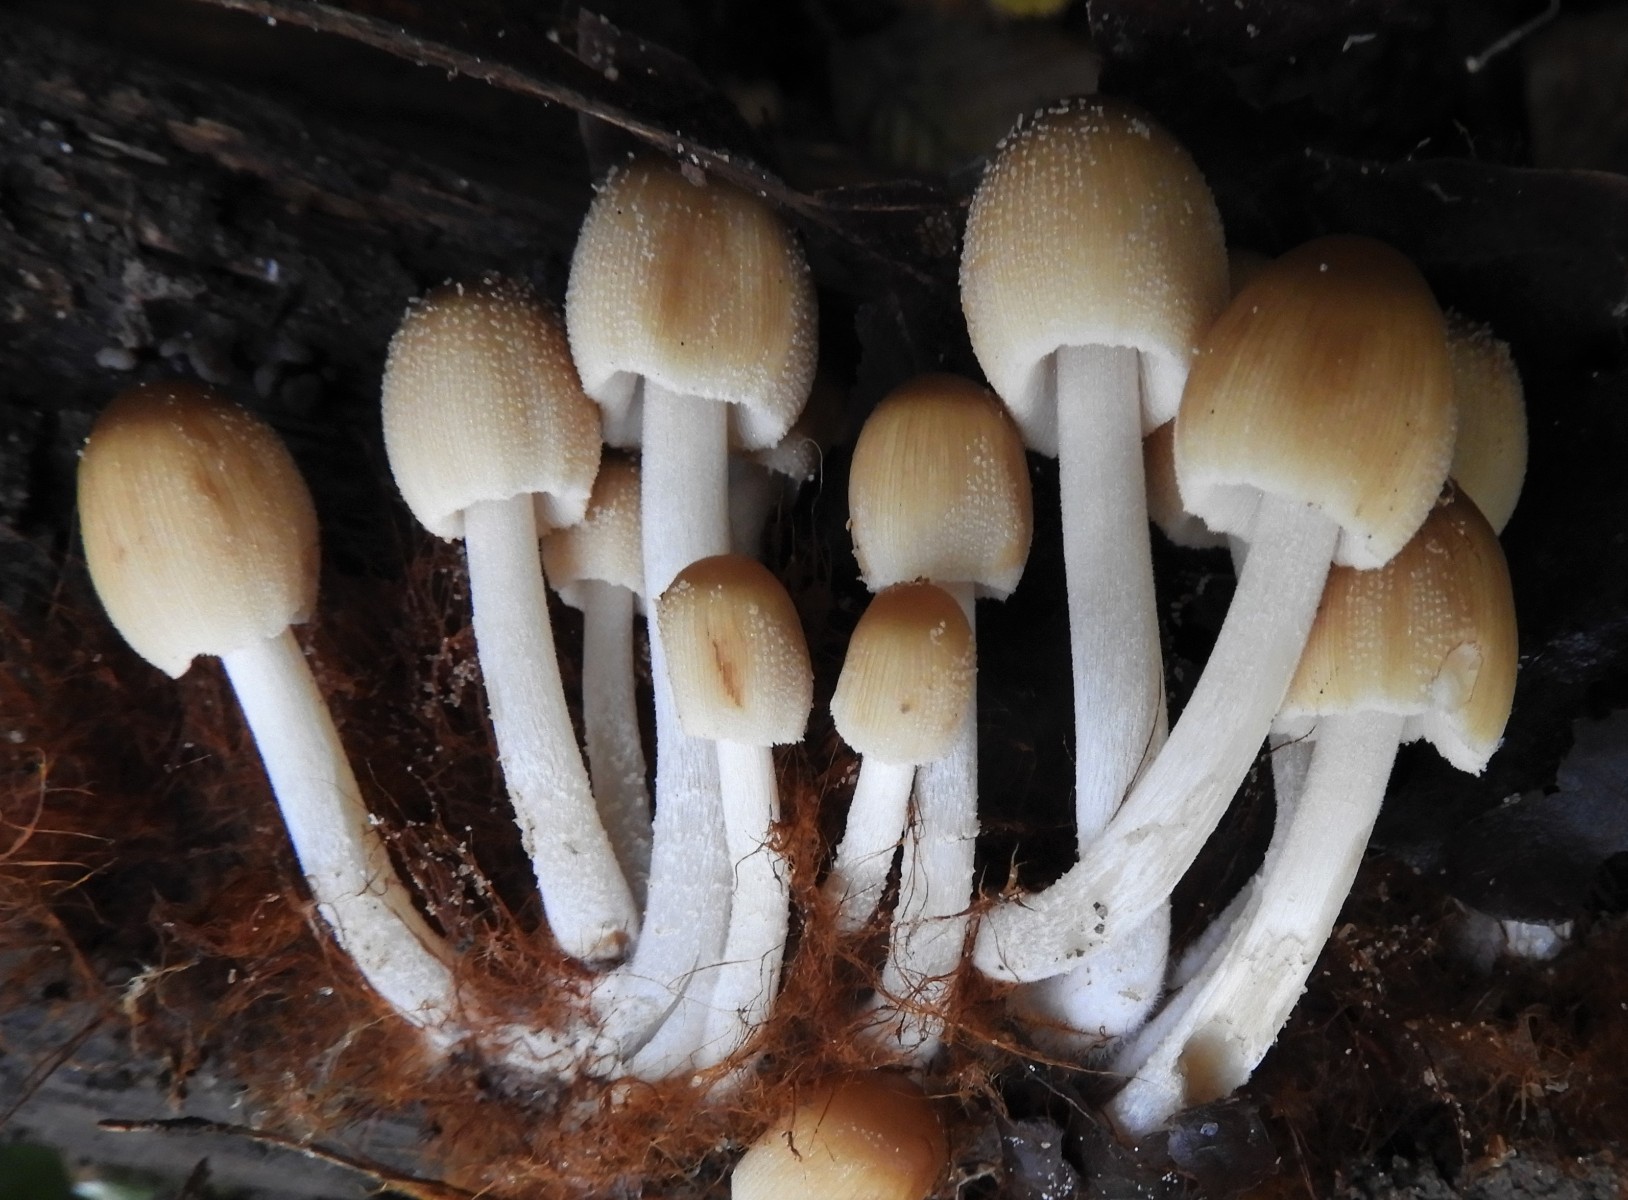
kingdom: Fungi
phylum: Basidiomycota
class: Agaricomycetes
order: Agaricales
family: Psathyrellaceae
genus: Coprinellus
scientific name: Coprinellus micaceus
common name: glimmer-blækhat
